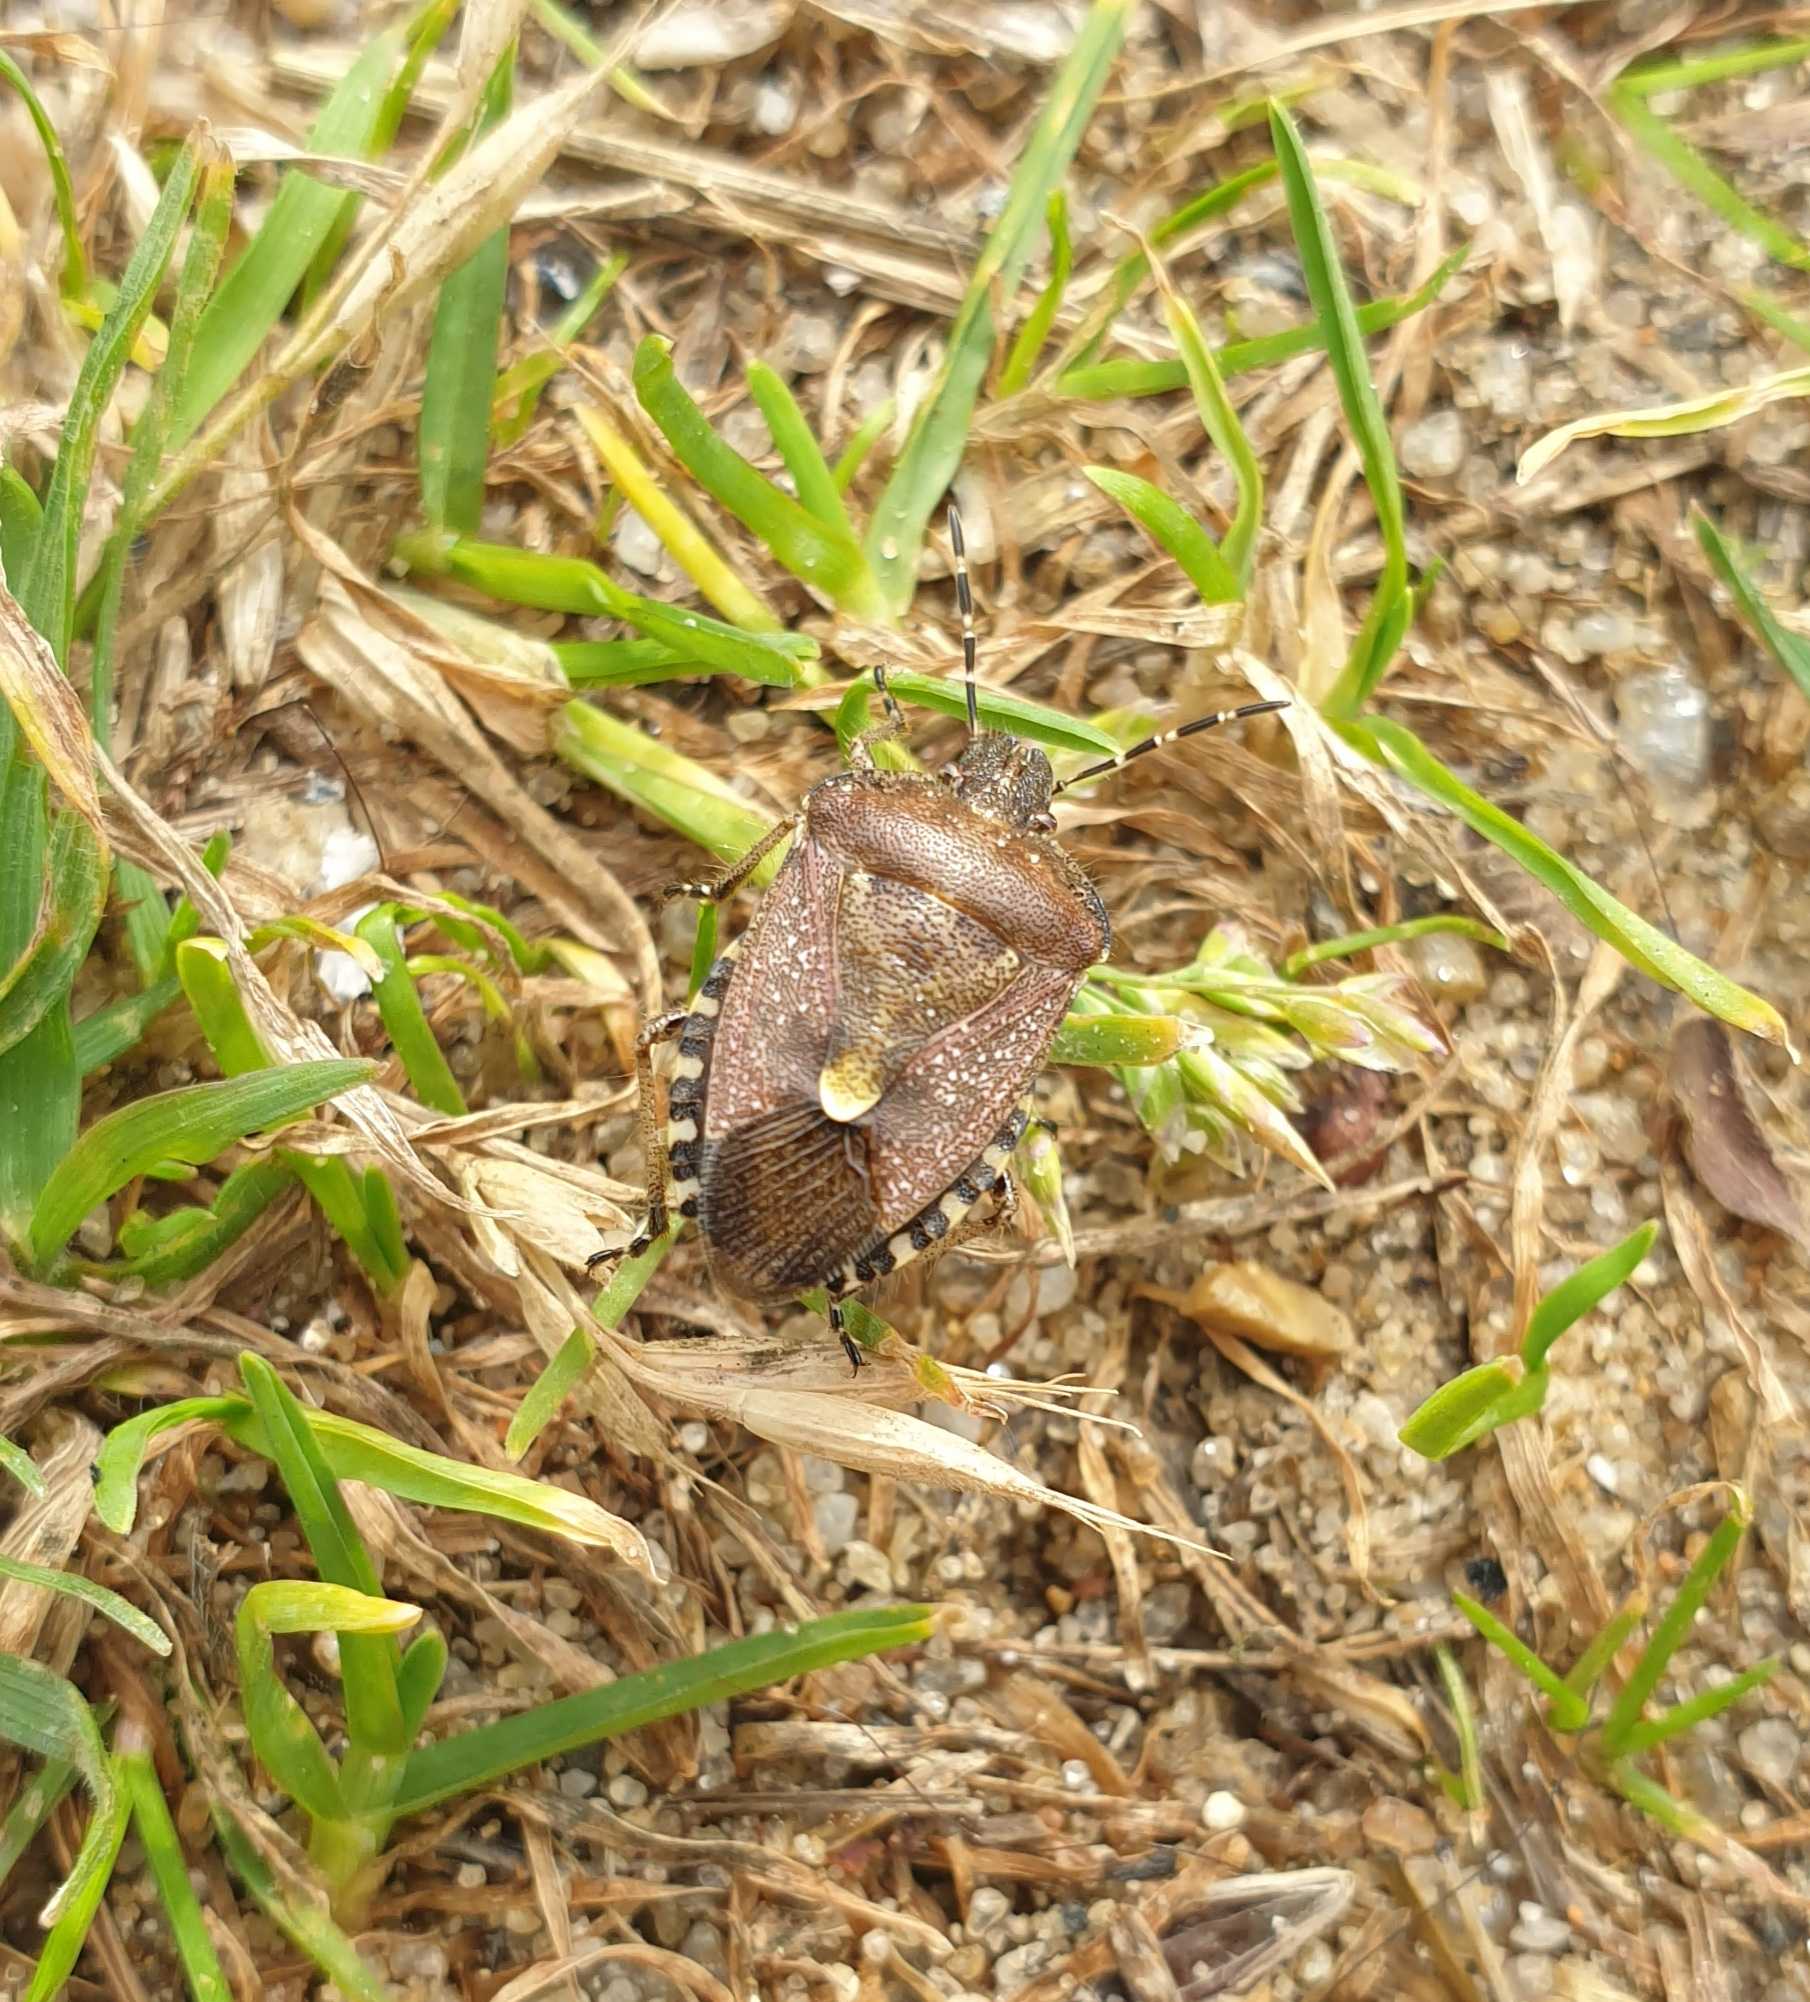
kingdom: Animalia
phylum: Arthropoda
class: Insecta
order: Hemiptera
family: Pentatomidae
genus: Dolycoris
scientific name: Dolycoris baccarum
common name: Almindelig bærtæge
